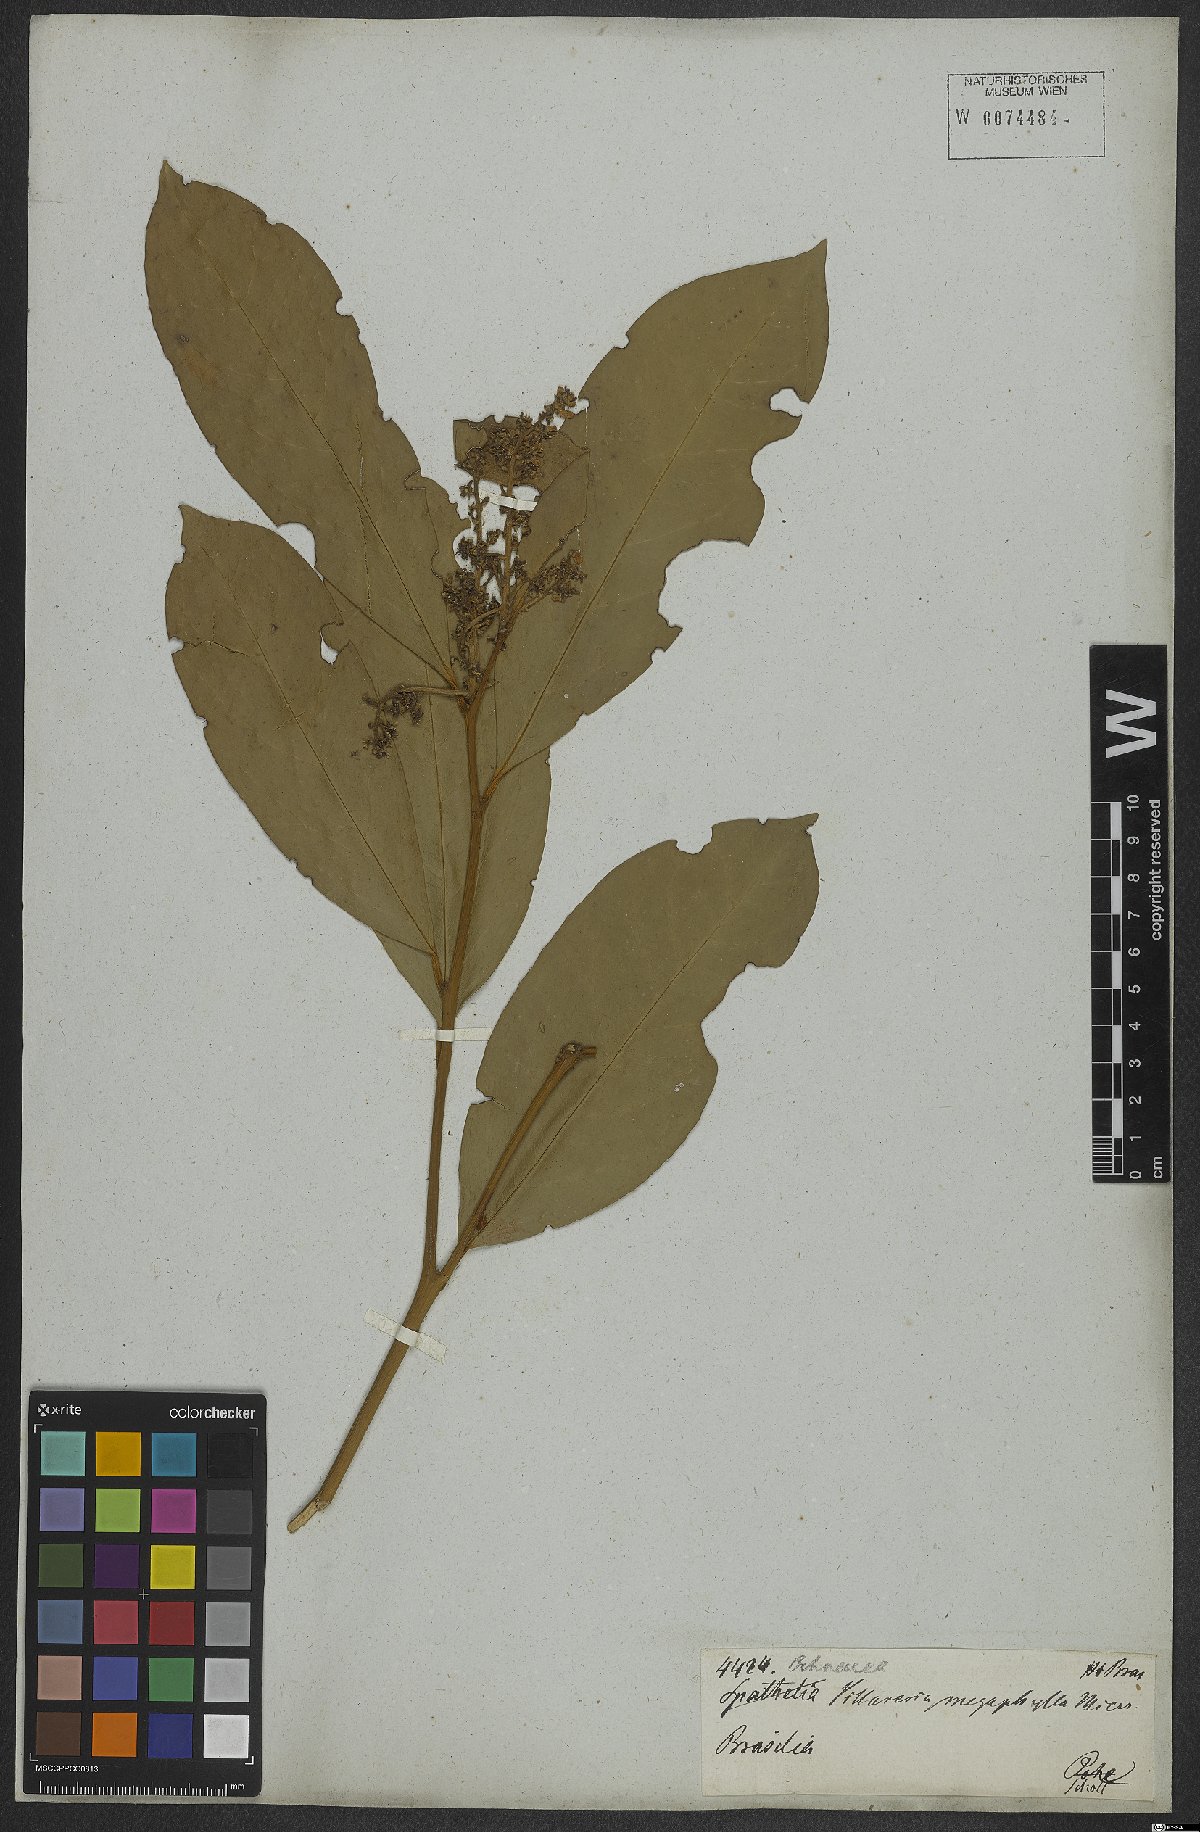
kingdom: Plantae
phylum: Tracheophyta
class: Magnoliopsida
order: Cardiopteridales
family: Cardiopteridaceae
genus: Citronella
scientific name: Citronella paniculata
